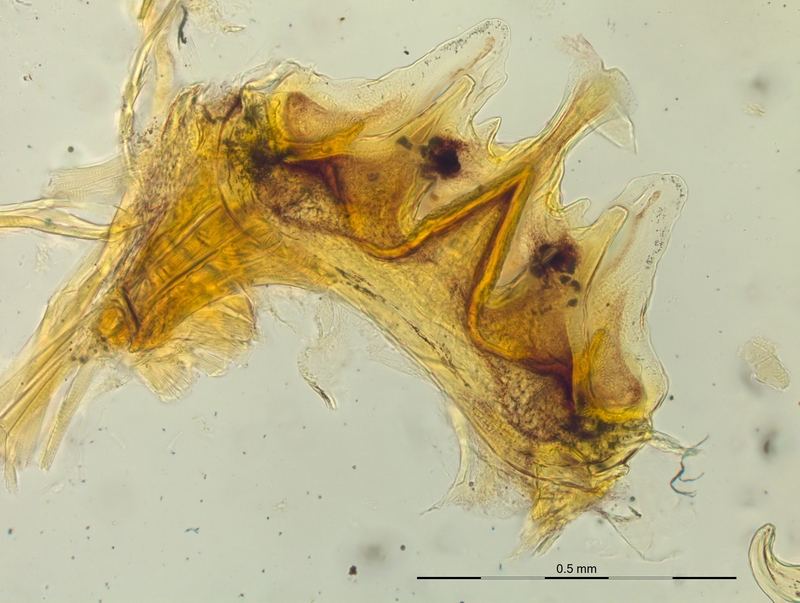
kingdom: Animalia
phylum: Arthropoda
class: Diplopoda
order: Chordeumatida
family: Craspedosomatidae
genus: Craspedosoma
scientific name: Craspedosoma rawlinsii
